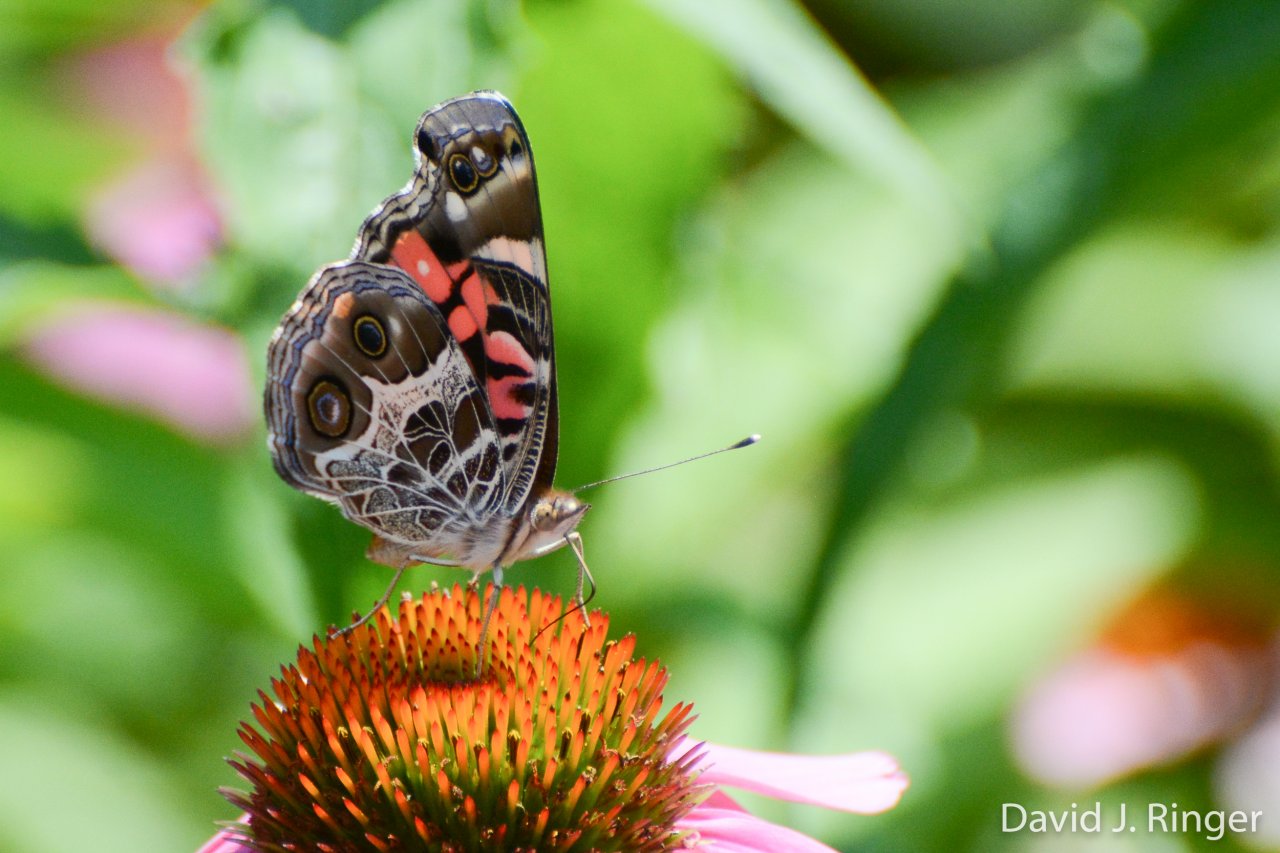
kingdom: Animalia
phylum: Arthropoda
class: Insecta
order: Lepidoptera
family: Nymphalidae
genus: Vanessa
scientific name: Vanessa virginiensis
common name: American Lady
